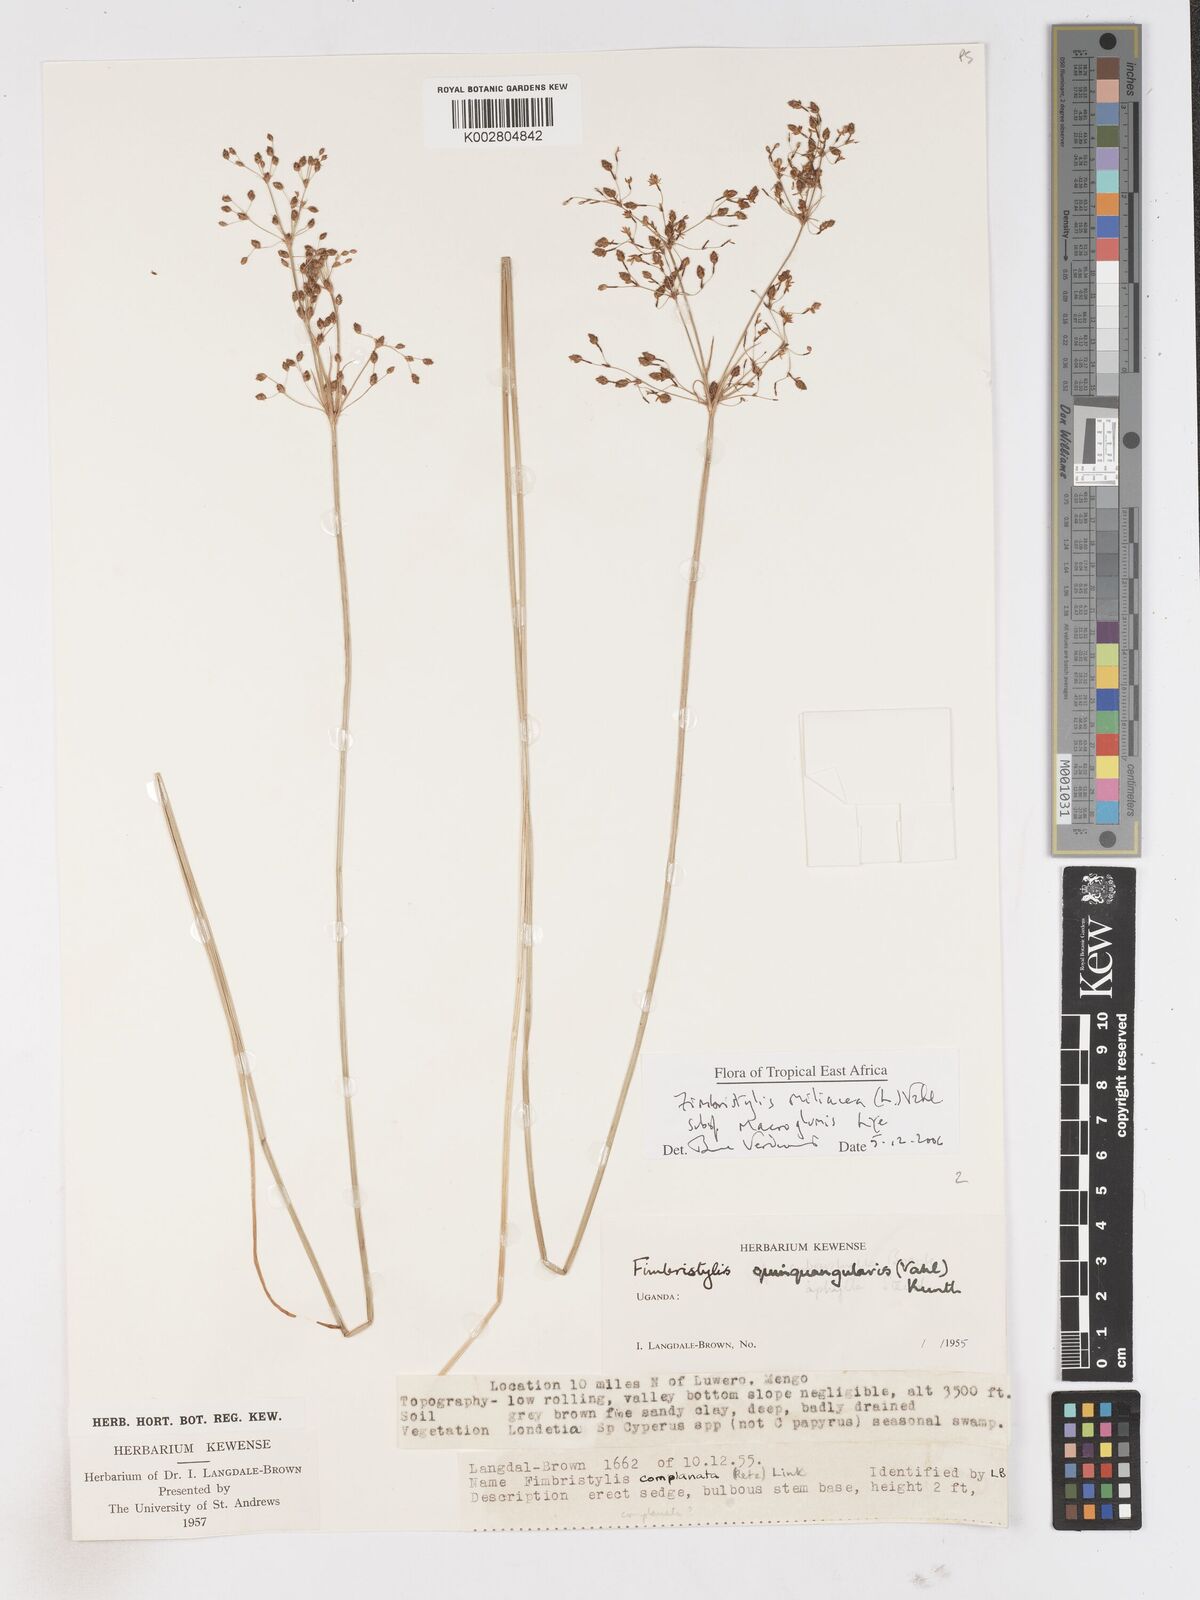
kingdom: Plantae
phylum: Tracheophyta
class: Liliopsida
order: Poales
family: Cyperaceae
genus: Fimbristylis
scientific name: Fimbristylis quinquangularis
